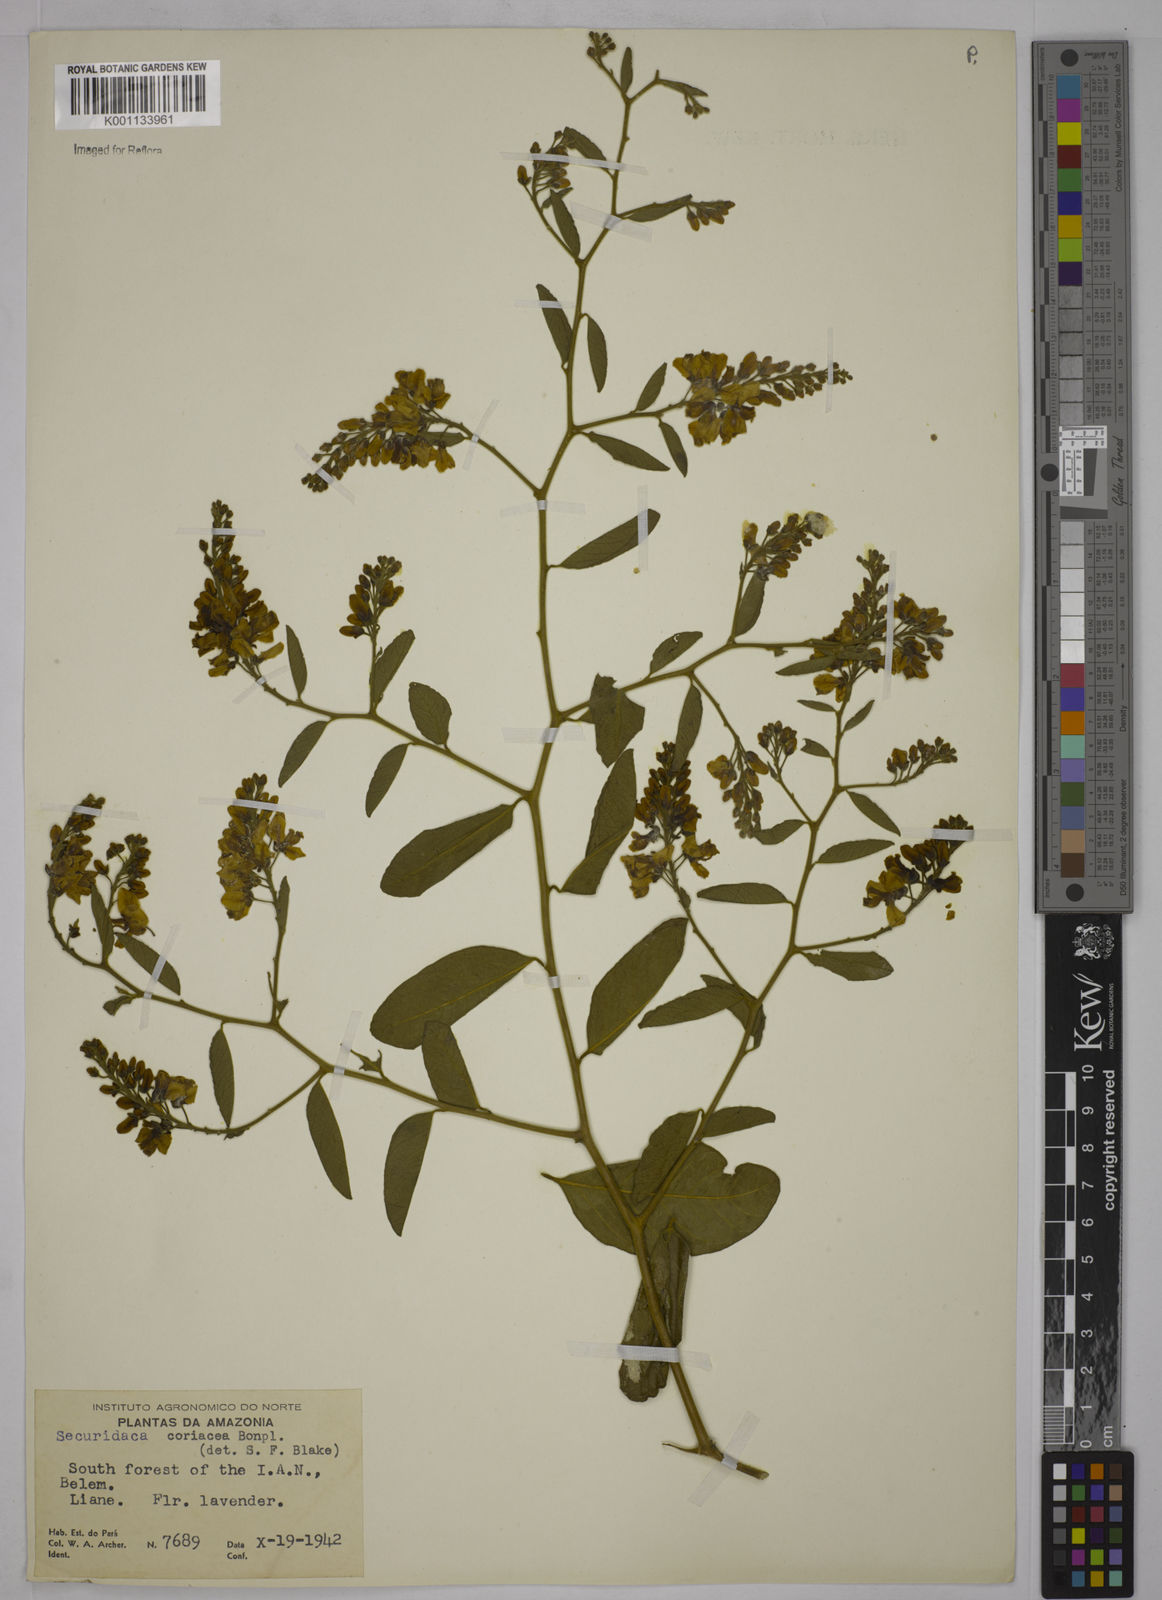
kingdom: Plantae
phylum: Tracheophyta
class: Magnoliopsida
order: Fabales
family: Polygalaceae
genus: Securidaca
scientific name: Securidaca diversifolia
